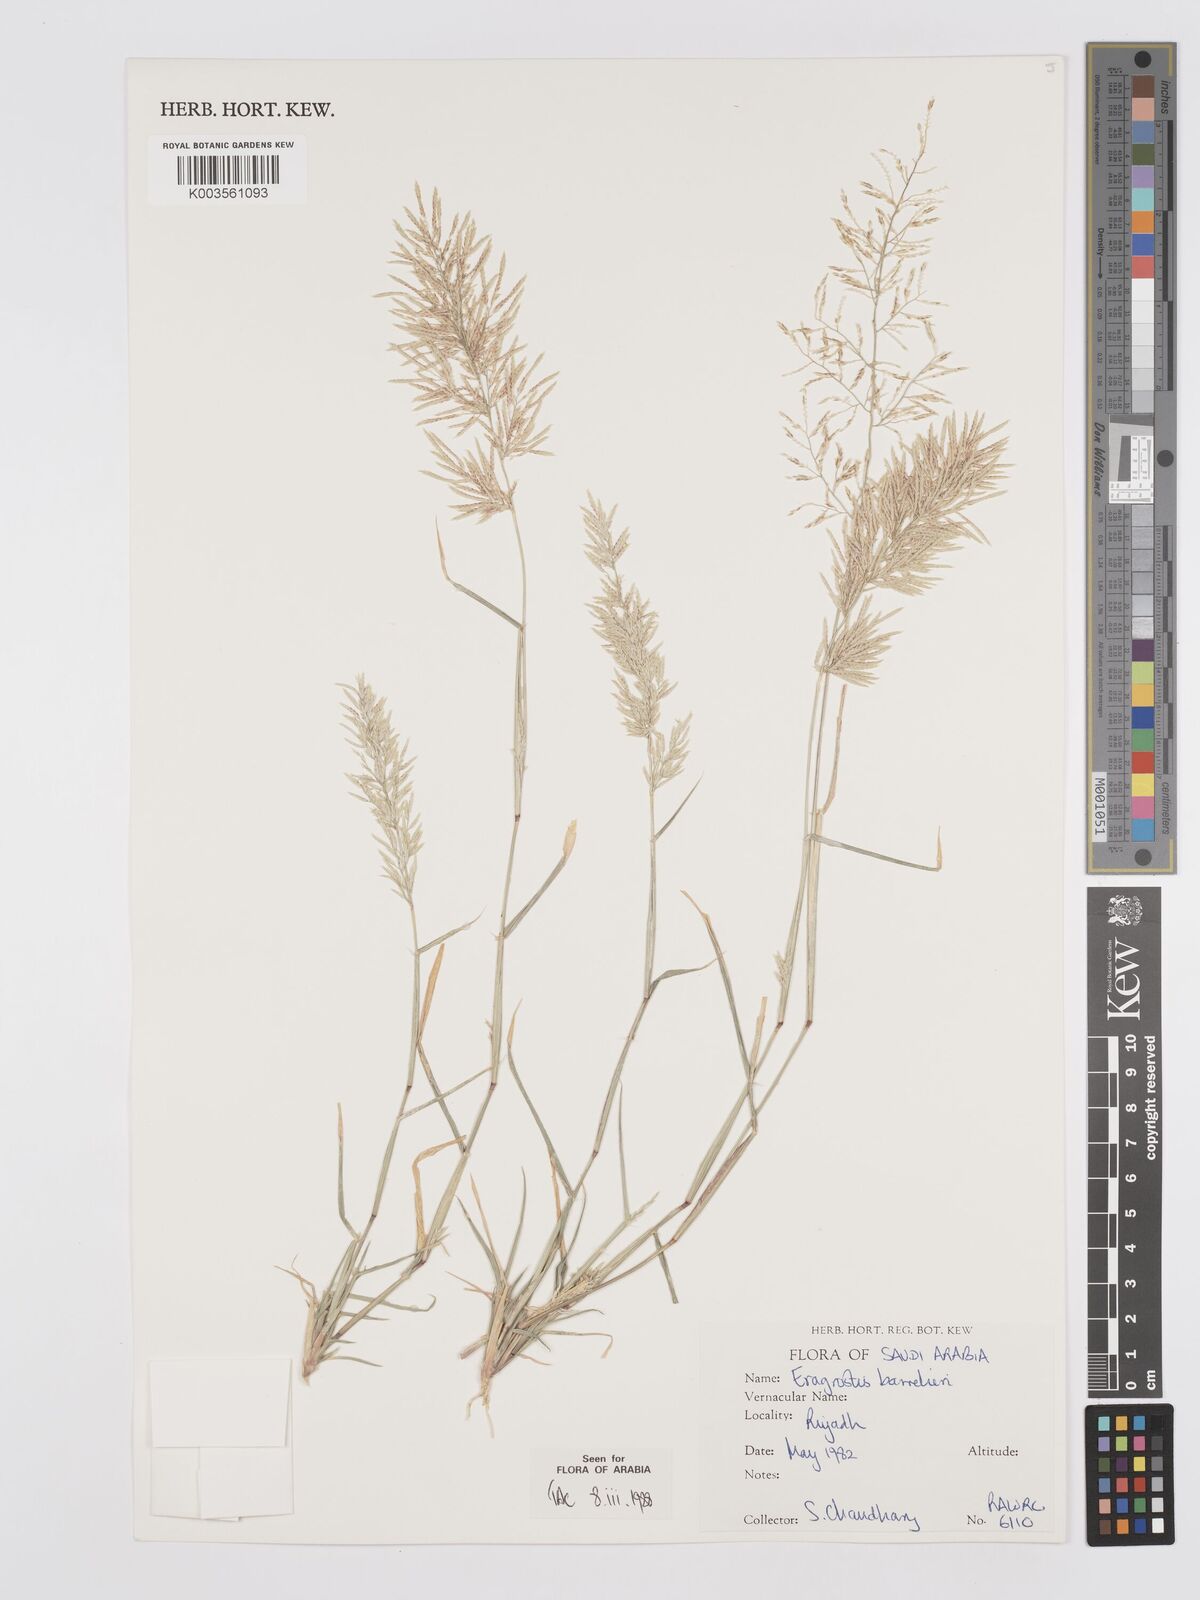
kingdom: Plantae
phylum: Tracheophyta
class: Liliopsida
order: Poales
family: Poaceae
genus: Eragrostis
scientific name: Eragrostis barrelieri
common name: Mediterranean lovegrass
